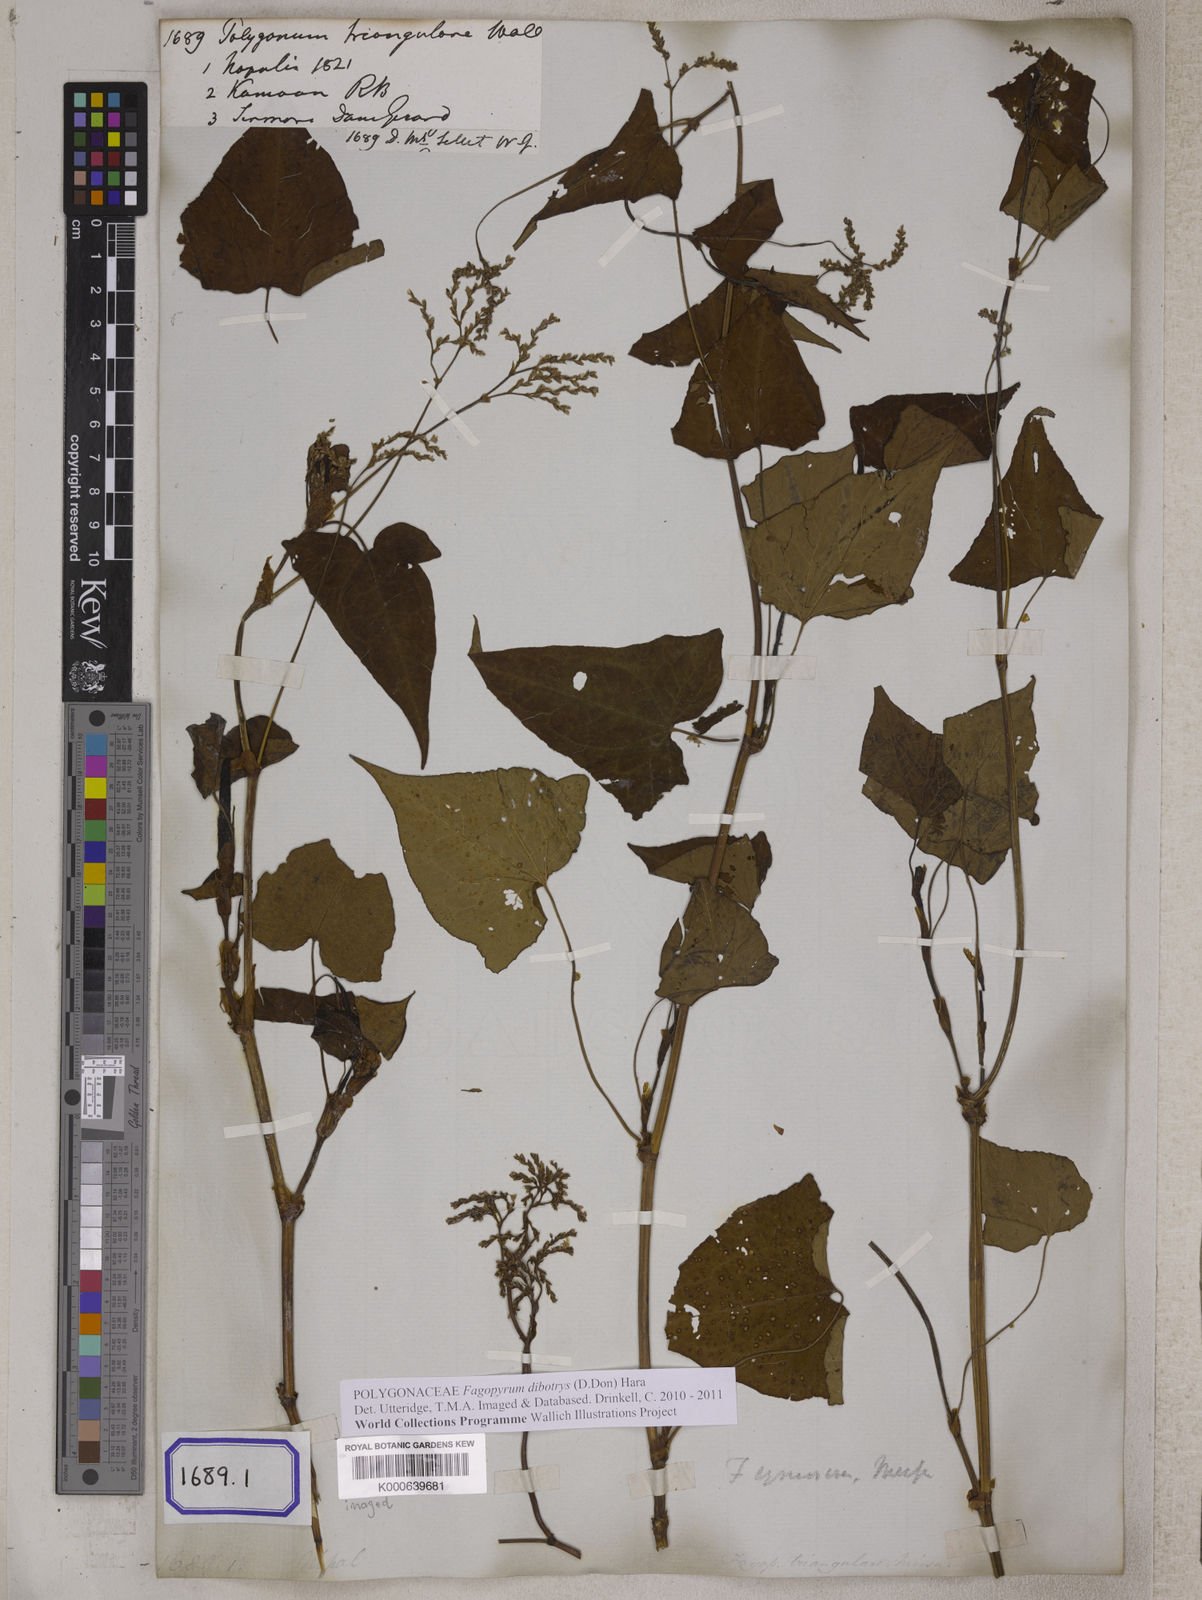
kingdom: Plantae
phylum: Tracheophyta
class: Magnoliopsida
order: Caryophyllales
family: Polygonaceae
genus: Fagopyrum
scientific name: Fagopyrum cymosum
